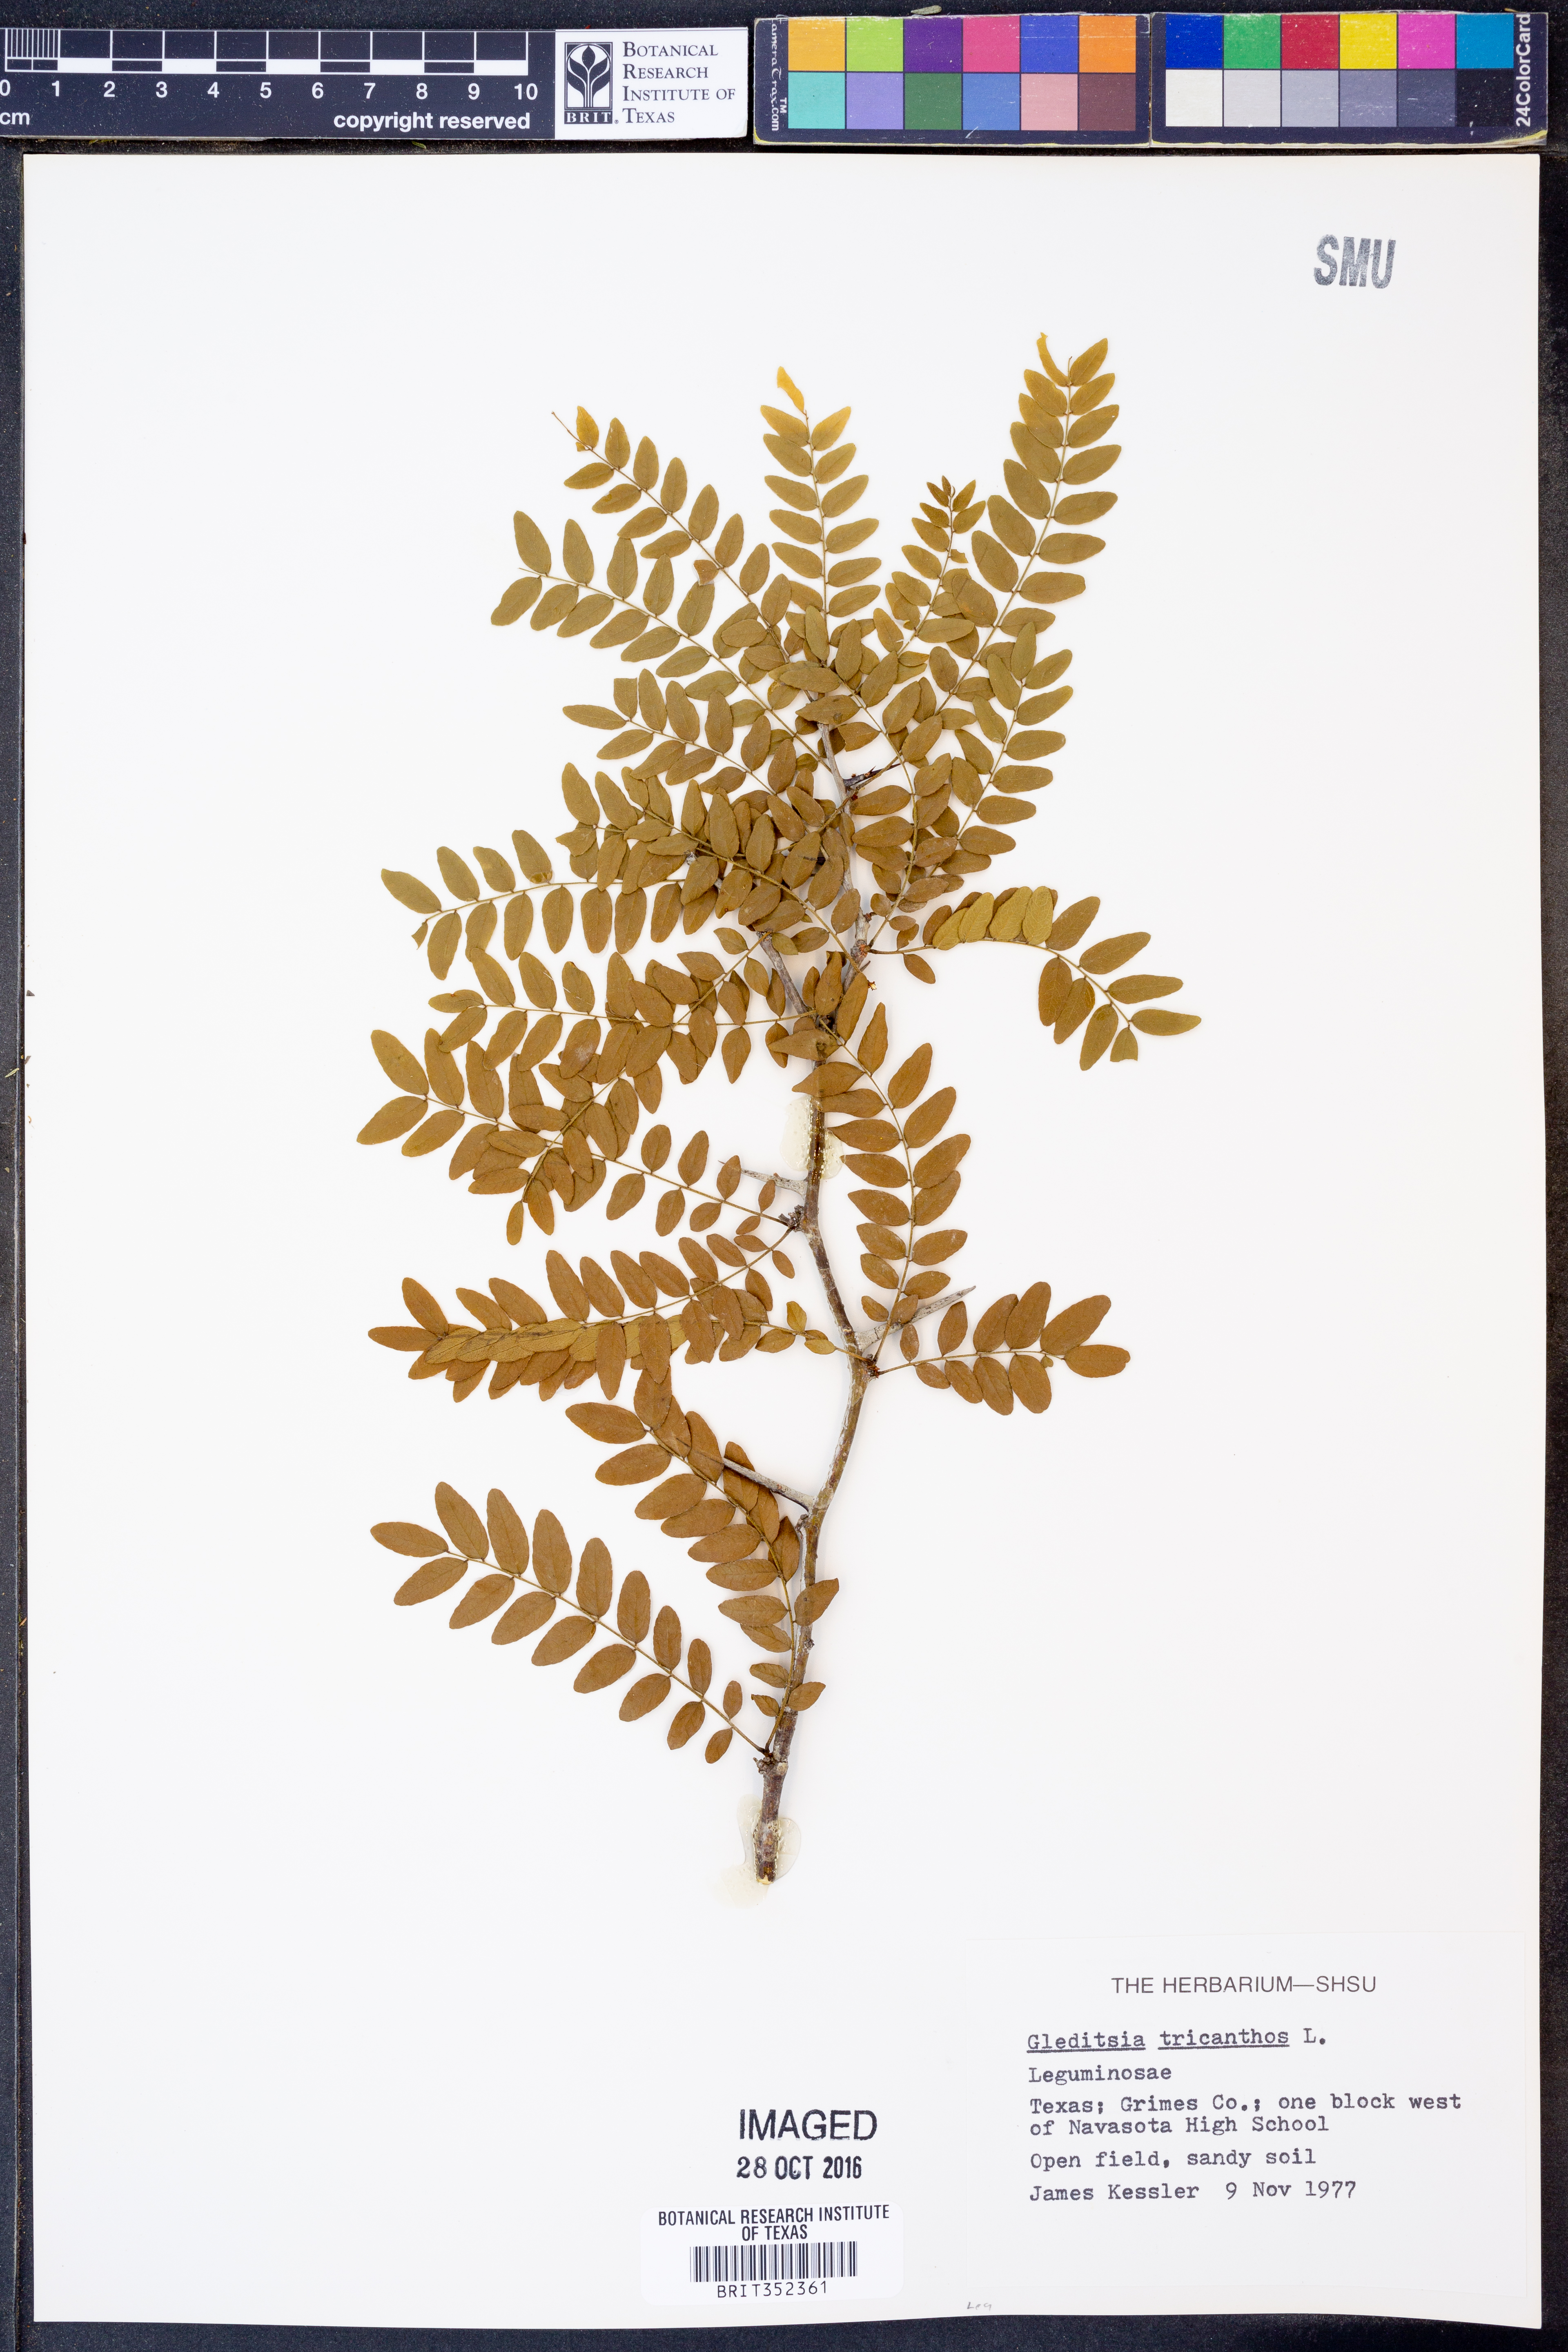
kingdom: Plantae
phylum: Tracheophyta
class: Magnoliopsida
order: Fabales
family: Fabaceae
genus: Gleditsia
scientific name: Gleditsia triacanthos
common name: Common honeylocust
